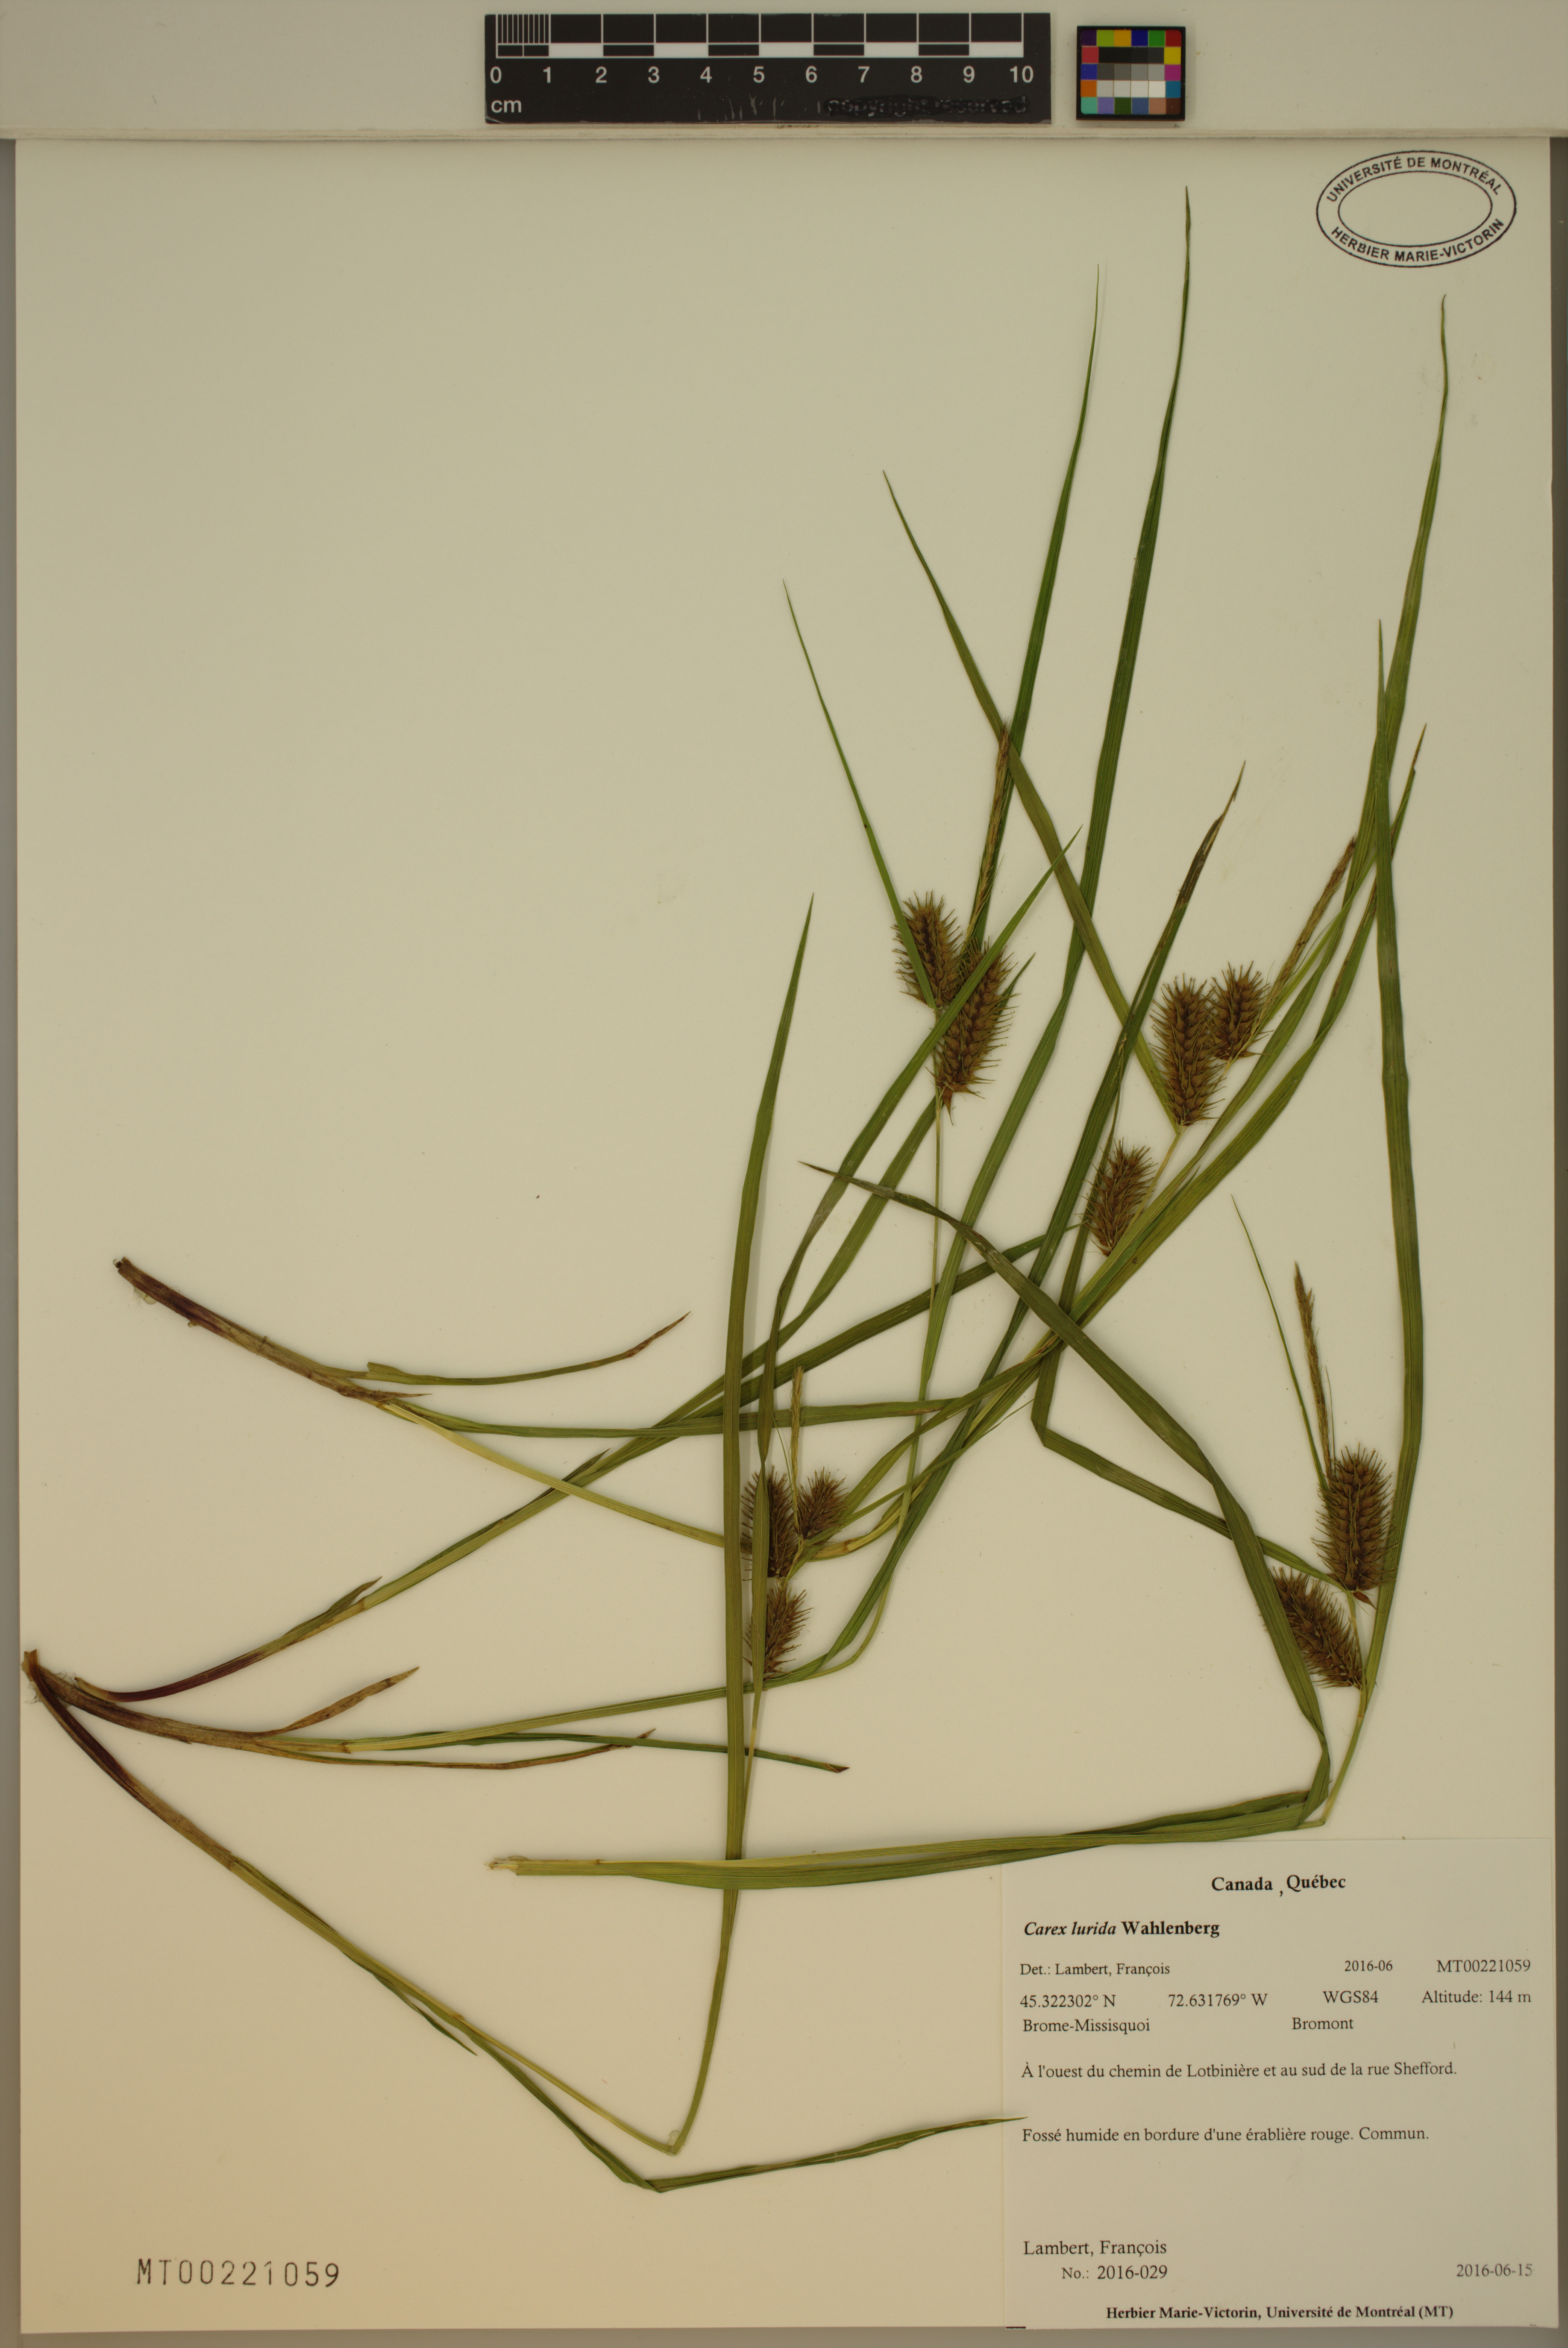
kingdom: Plantae
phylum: Tracheophyta
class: Liliopsida
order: Poales
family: Cyperaceae
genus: Carex
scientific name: Carex lurida
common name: Sallow sedge
